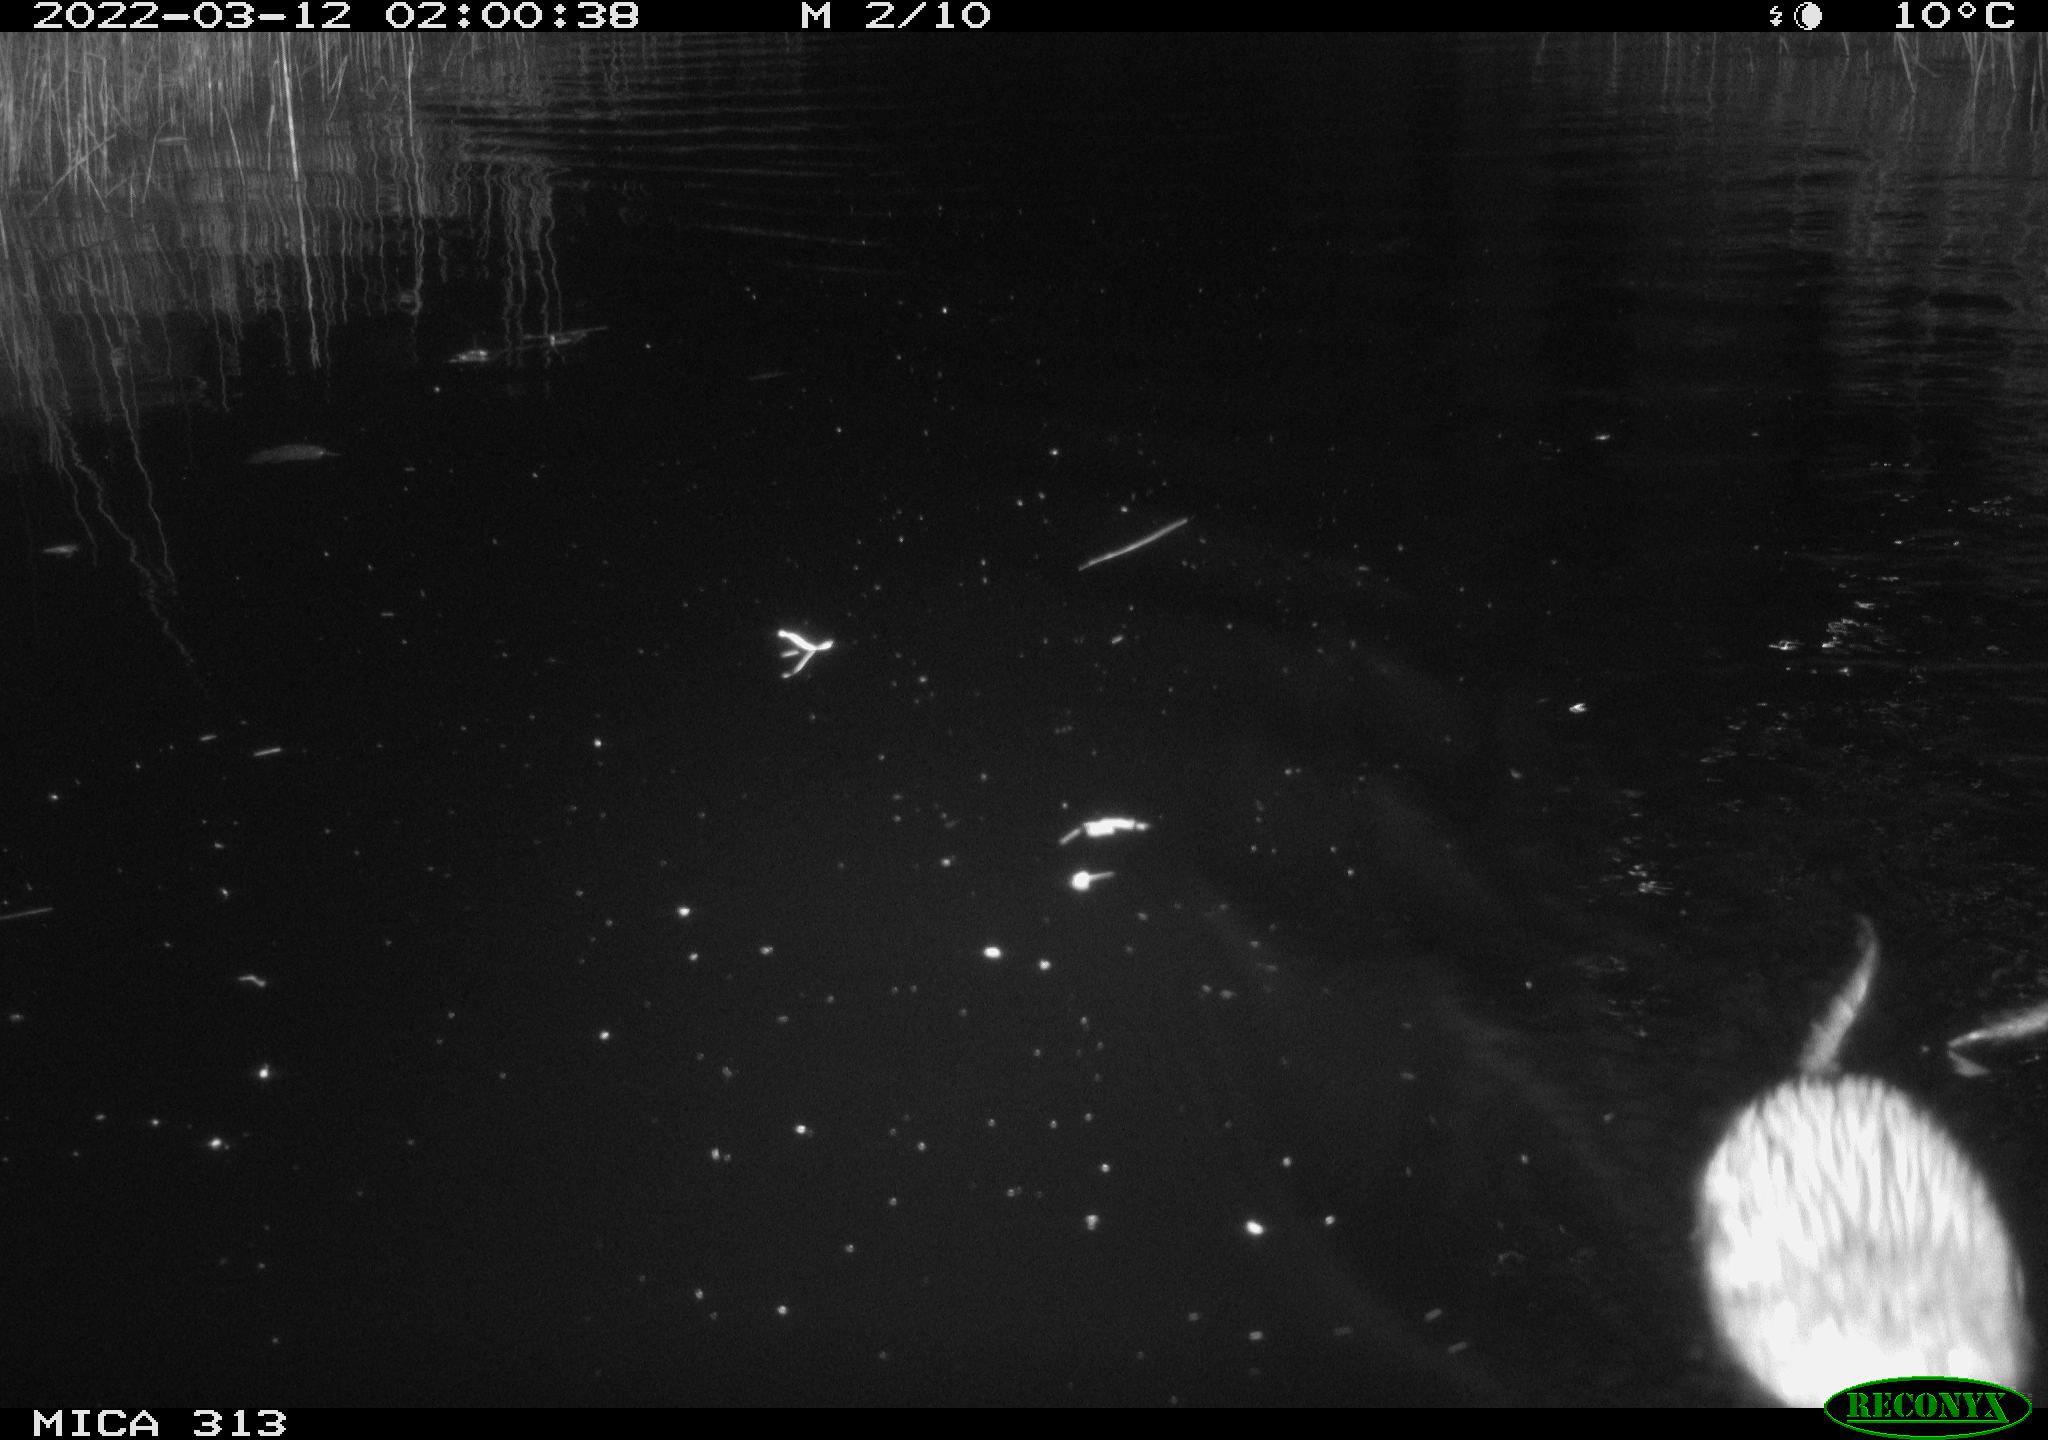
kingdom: Animalia
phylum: Chordata
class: Mammalia
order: Rodentia
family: Cricetidae
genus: Ondatra
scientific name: Ondatra zibethicus
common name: Muskrat
